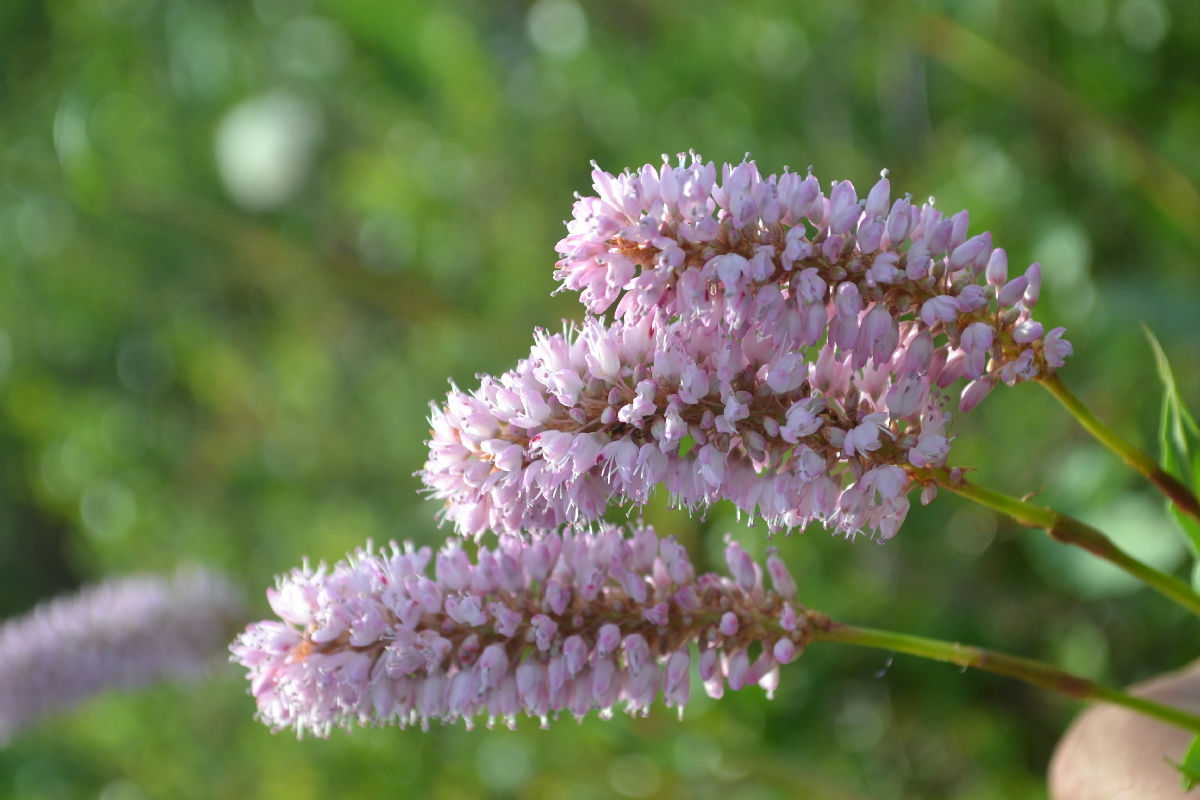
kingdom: Plantae
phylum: Tracheophyta
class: Magnoliopsida
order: Caryophyllales
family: Polygonaceae
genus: Bistorta
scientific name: Bistorta officinalis
